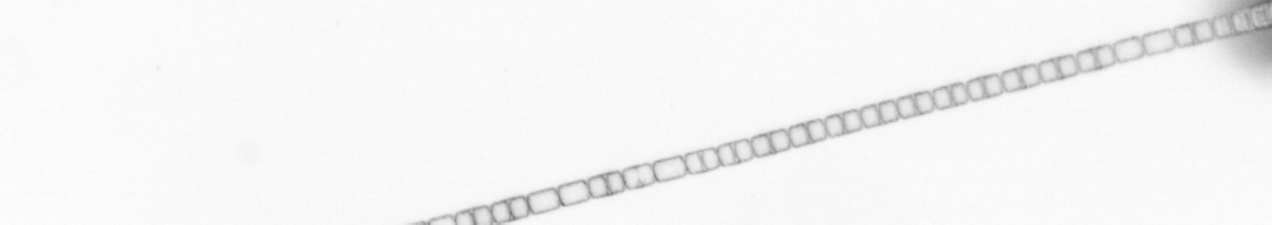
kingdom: Chromista
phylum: Ochrophyta
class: Bacillariophyceae
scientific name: Bacillariophyceae
